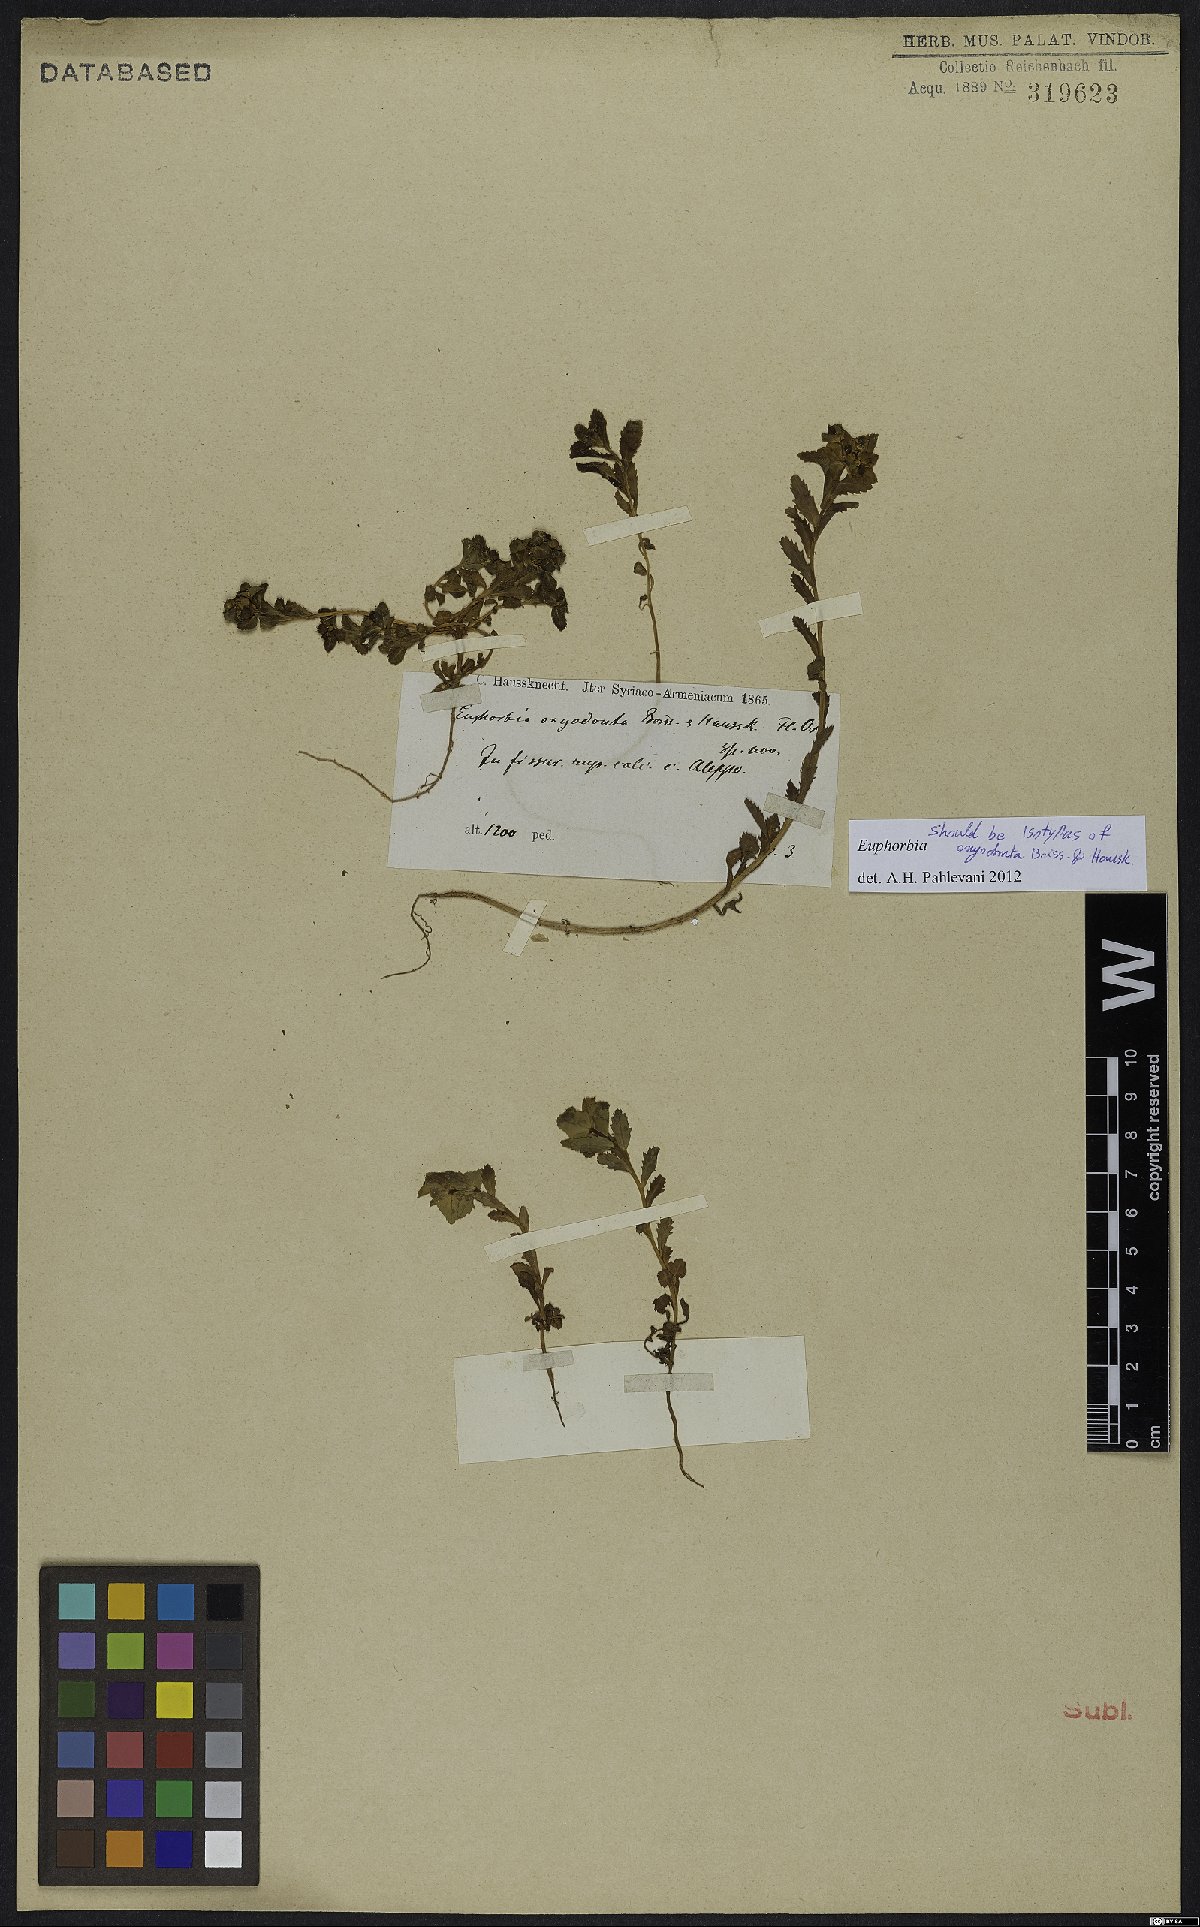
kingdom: Plantae
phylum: Tracheophyta
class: Magnoliopsida
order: Malpighiales
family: Euphorbiaceae
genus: Euphorbia
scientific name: Euphorbia oxyodonta
